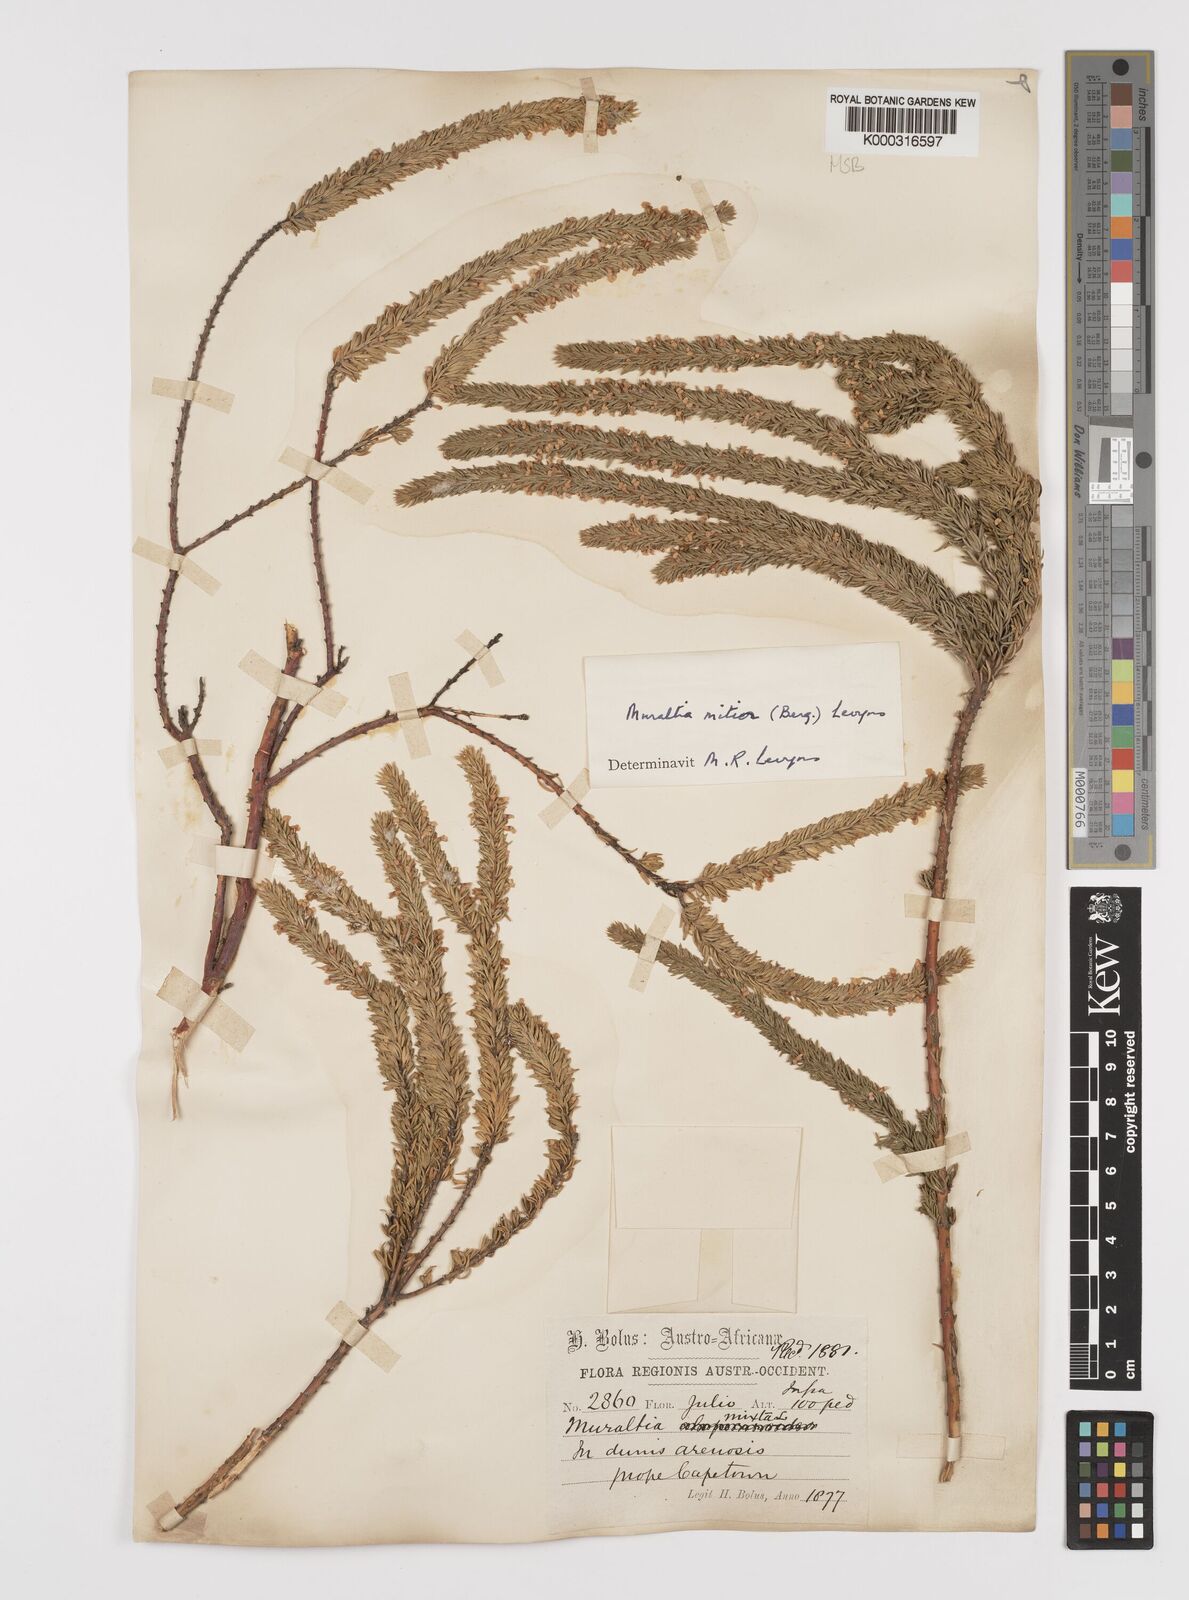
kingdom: Plantae
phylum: Tracheophyta
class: Magnoliopsida
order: Fabales
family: Polygalaceae
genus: Muraltia
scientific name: Muraltia
